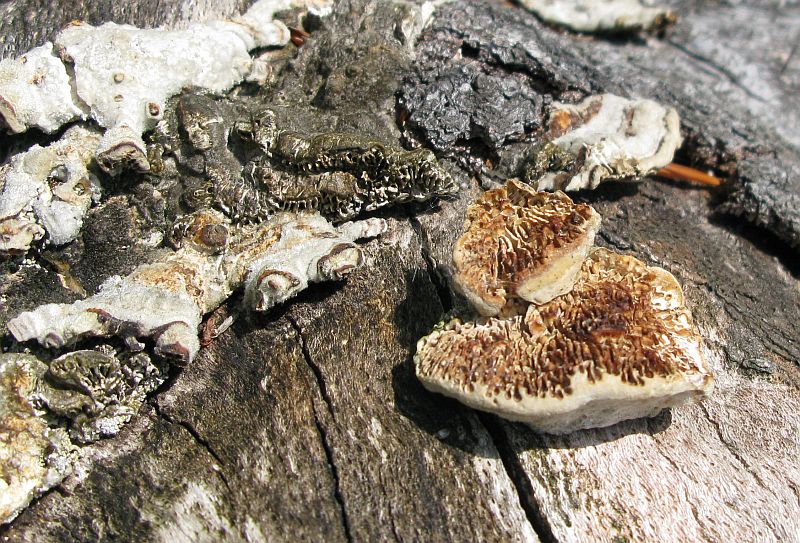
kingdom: Fungi
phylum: Basidiomycota
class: Agaricomycetes
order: Polyporales
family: Polyporaceae
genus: Lenzites
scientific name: Lenzites betulinus
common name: birke-læderporesvamp
